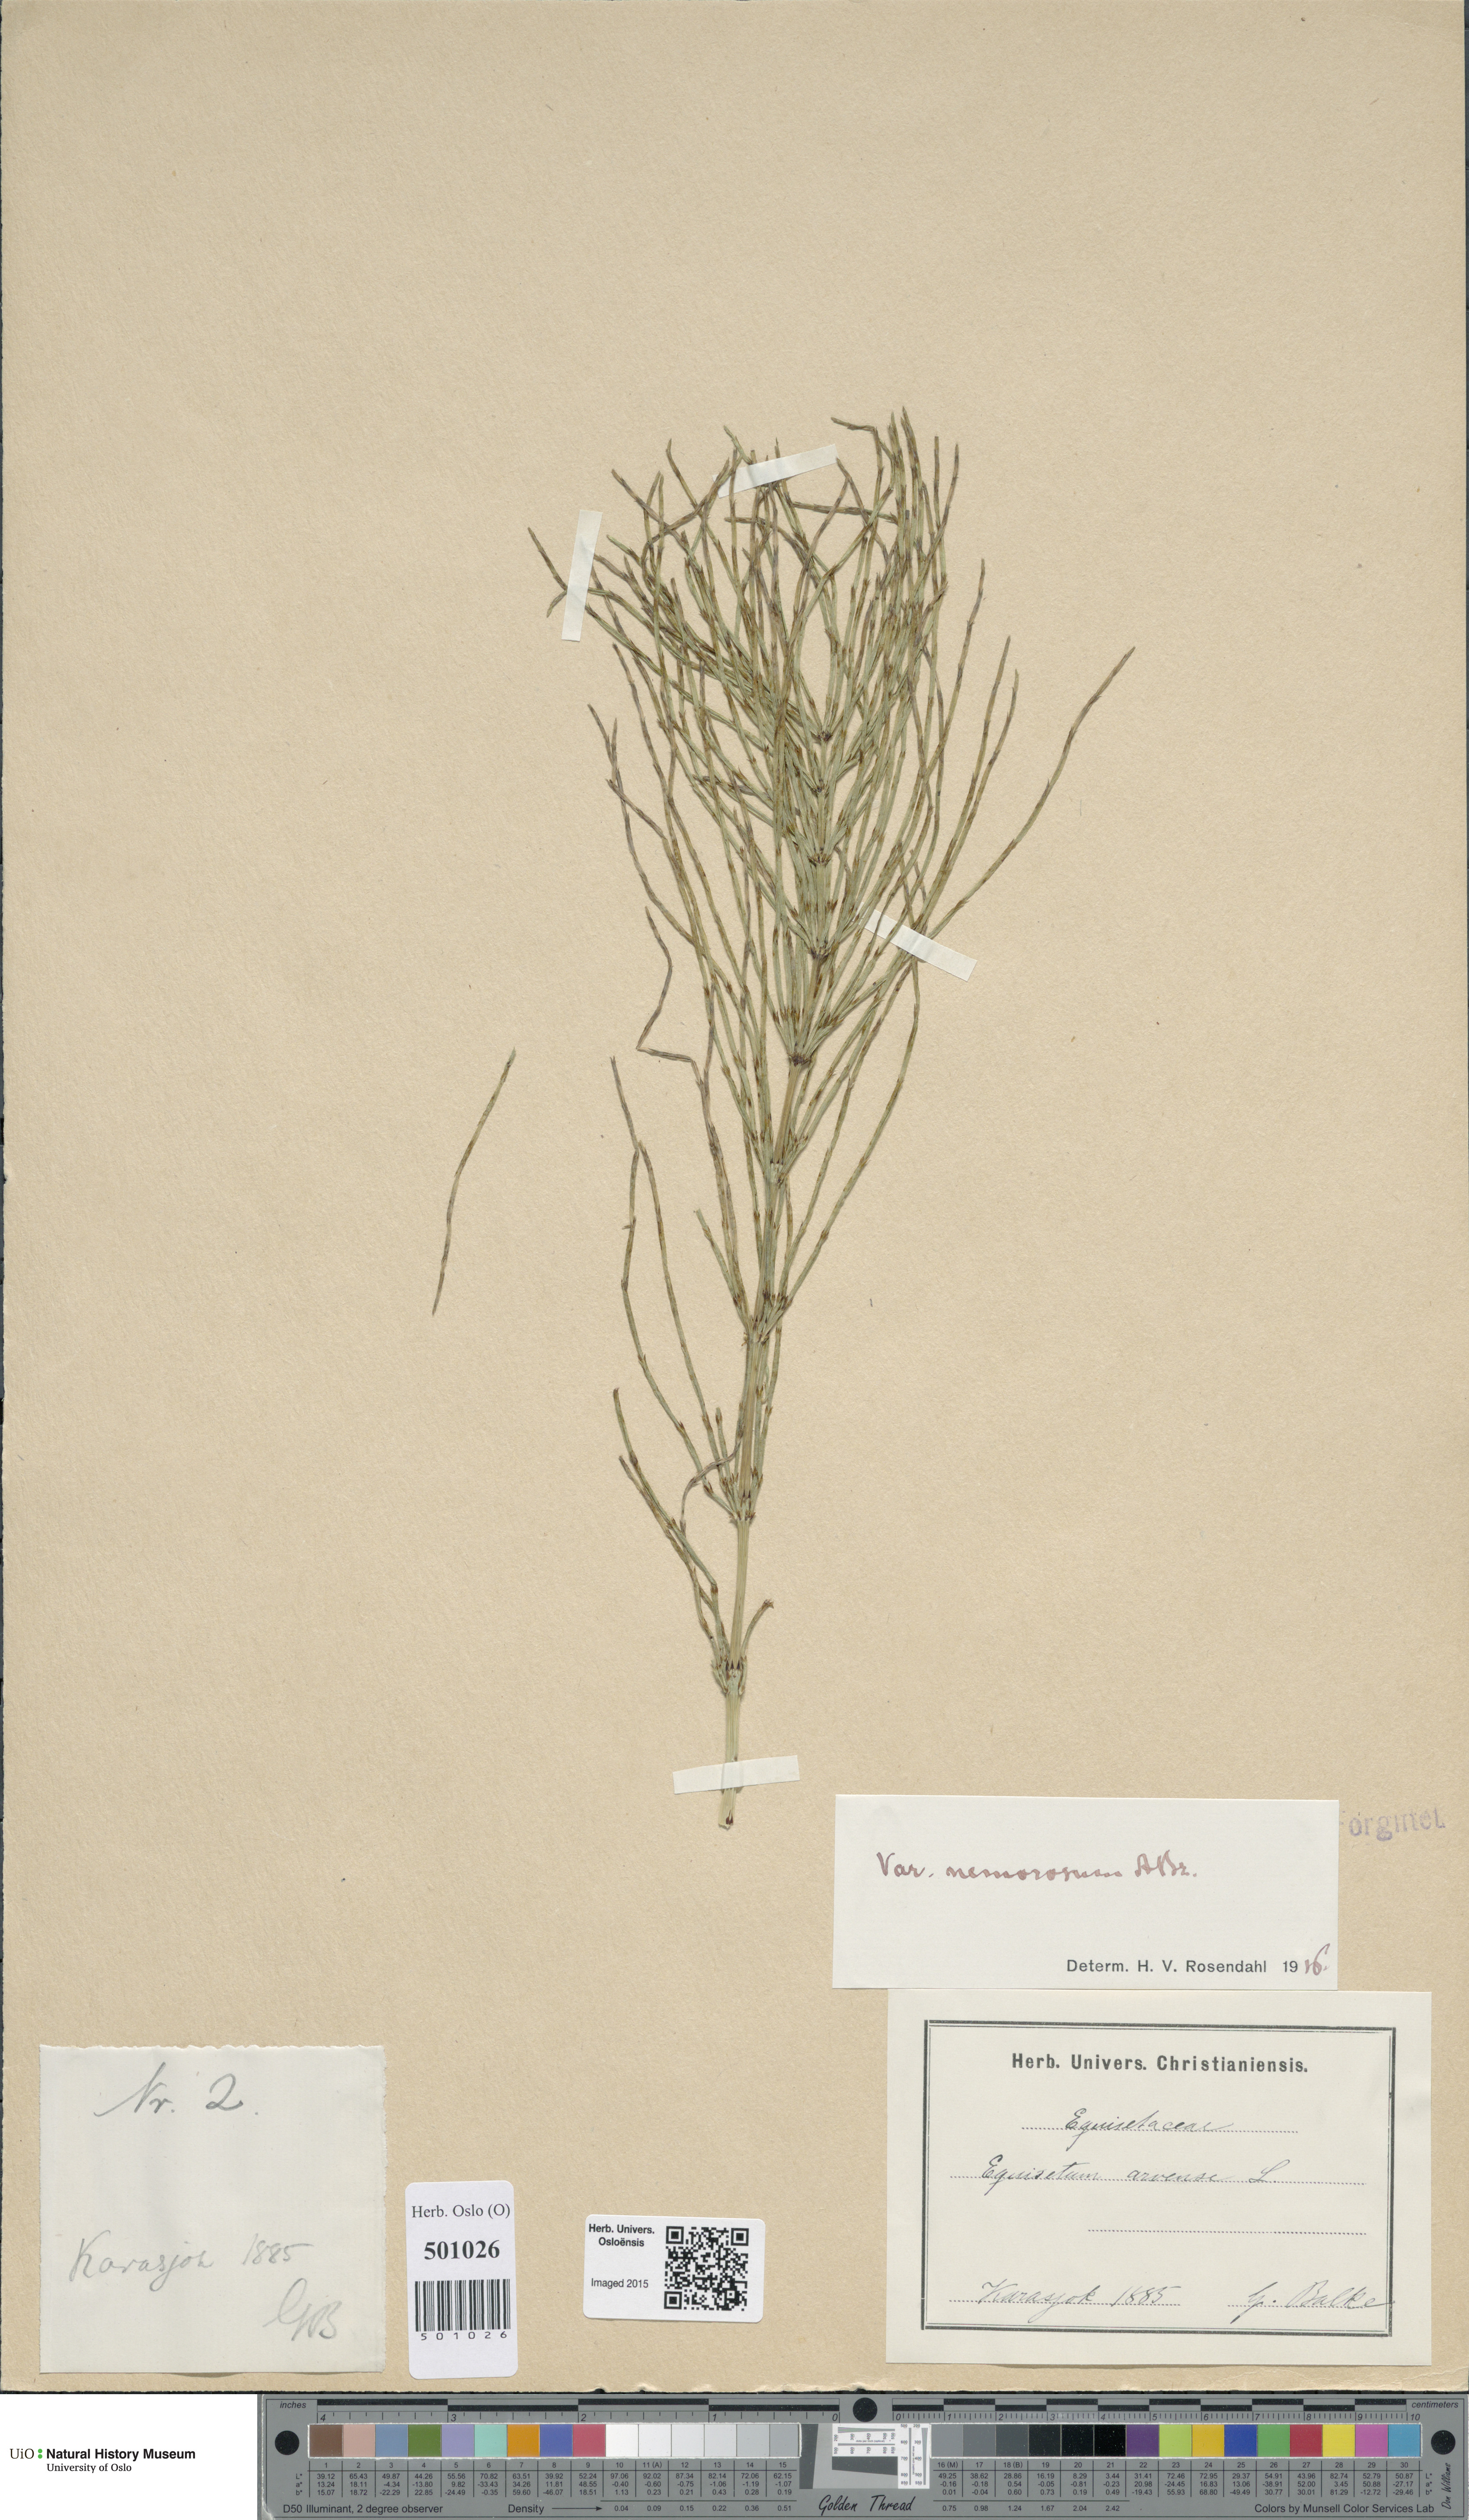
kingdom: Plantae
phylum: Tracheophyta
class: Polypodiopsida
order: Equisetales
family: Equisetaceae
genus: Equisetum
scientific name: Equisetum arvense
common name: Field horsetail
